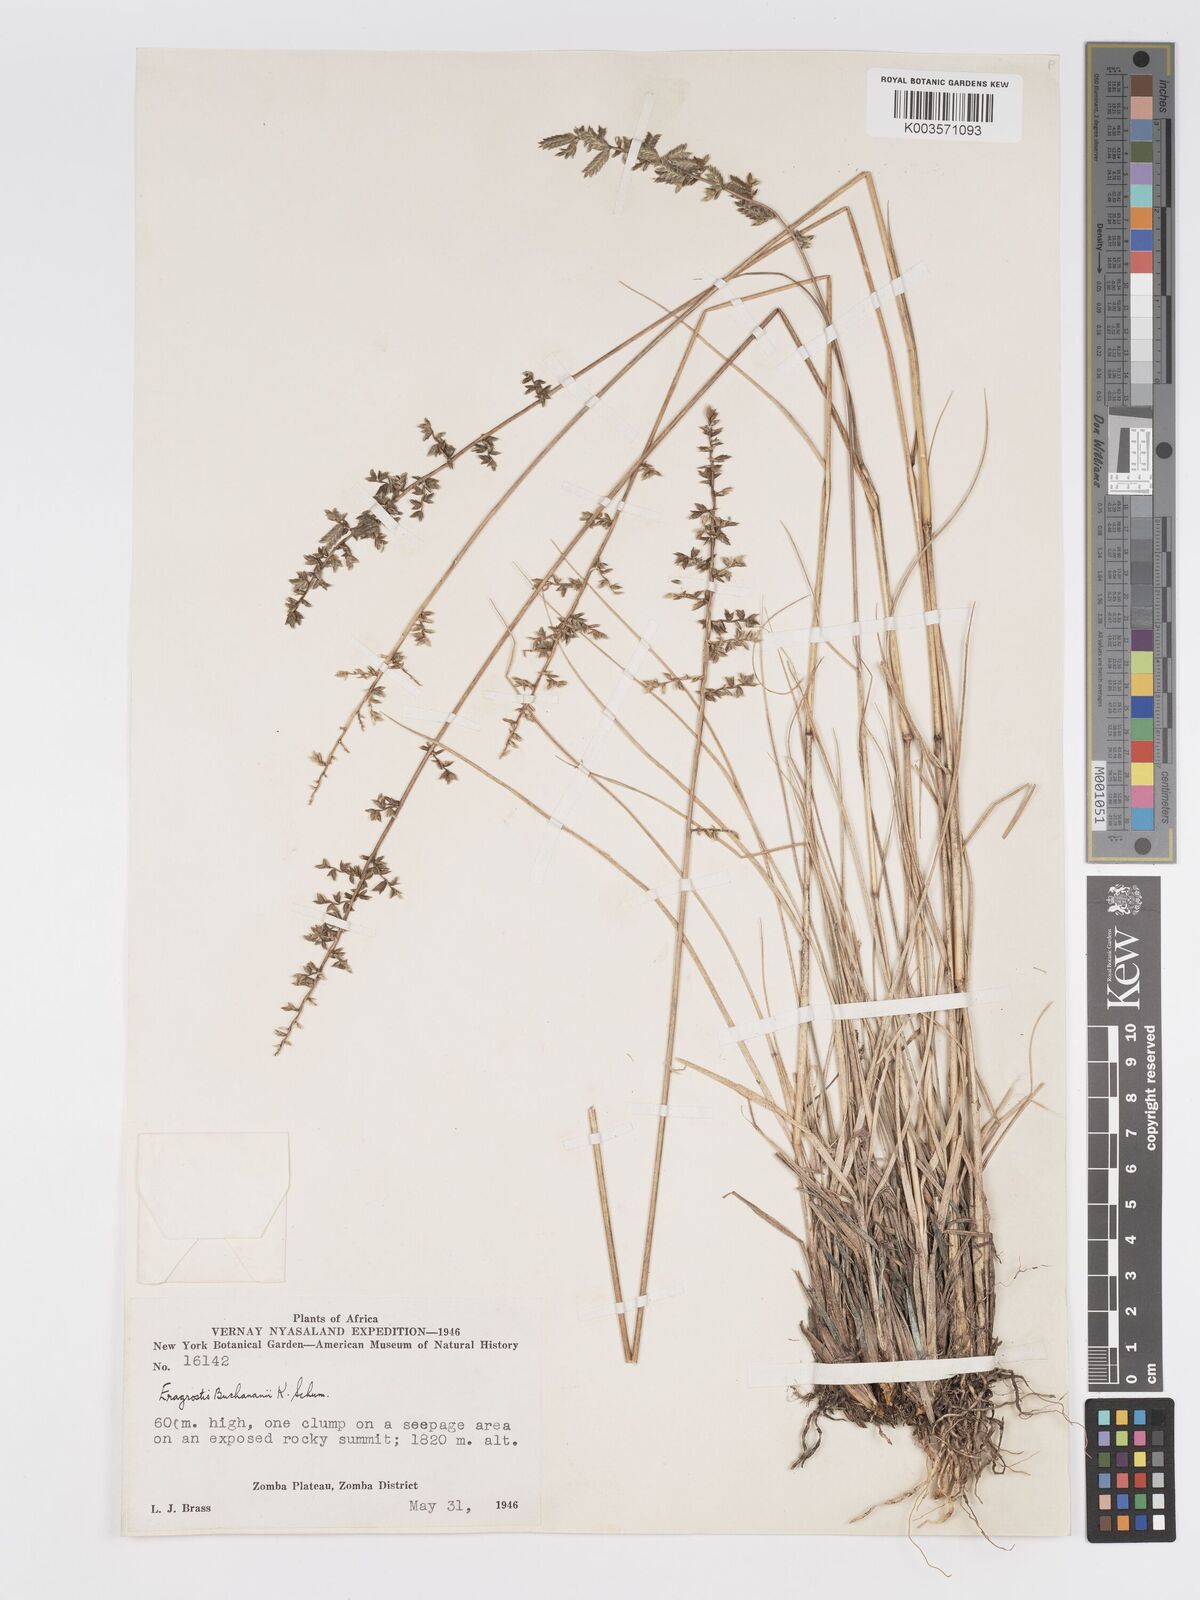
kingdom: Plantae
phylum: Tracheophyta
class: Liliopsida
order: Poales
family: Poaceae
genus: Eragrostis
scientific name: Eragrostis nindensis
